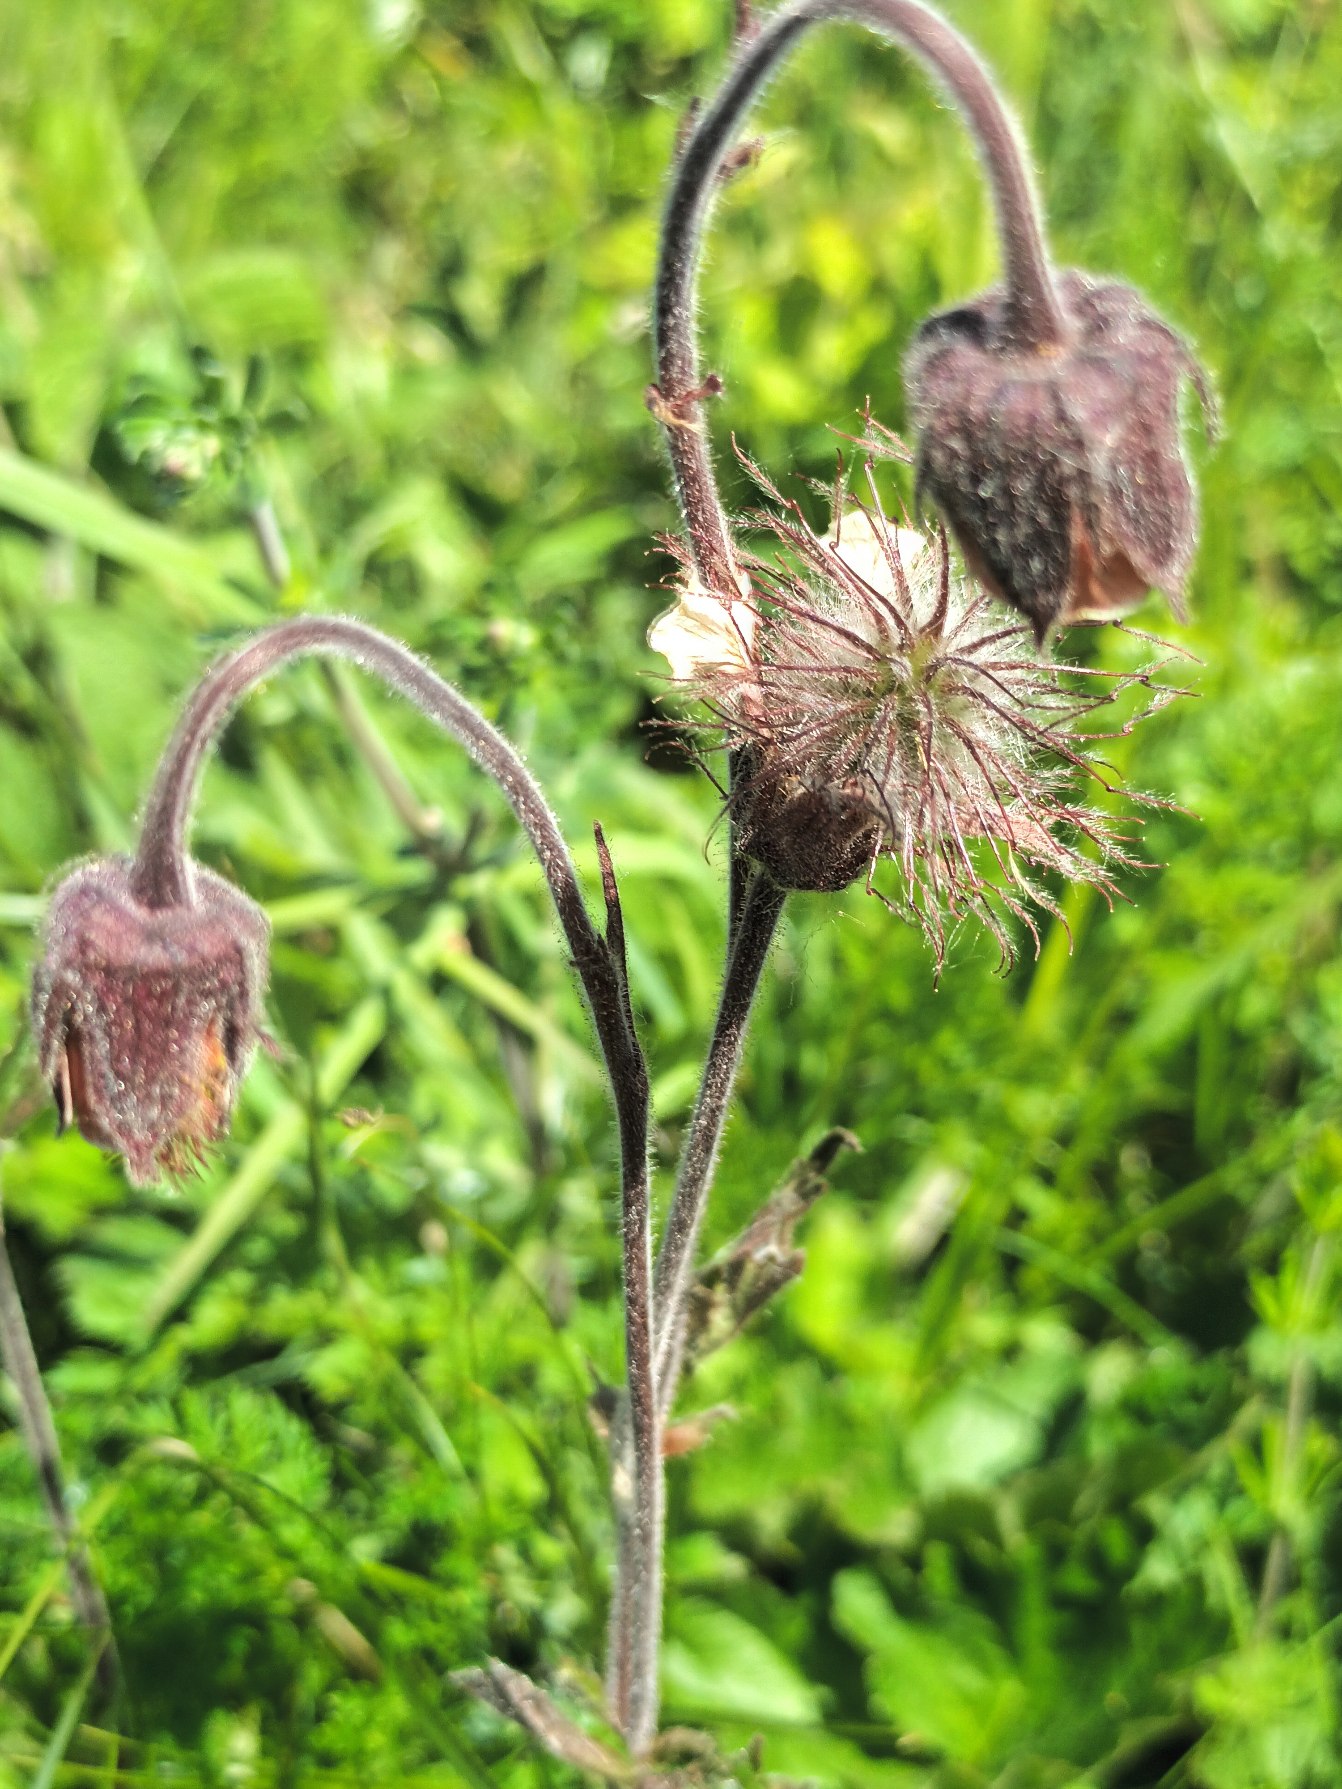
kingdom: Plantae
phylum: Tracheophyta
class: Magnoliopsida
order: Rosales
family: Rosaceae
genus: Geum
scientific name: Geum rivale
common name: Eng-nellikerod
